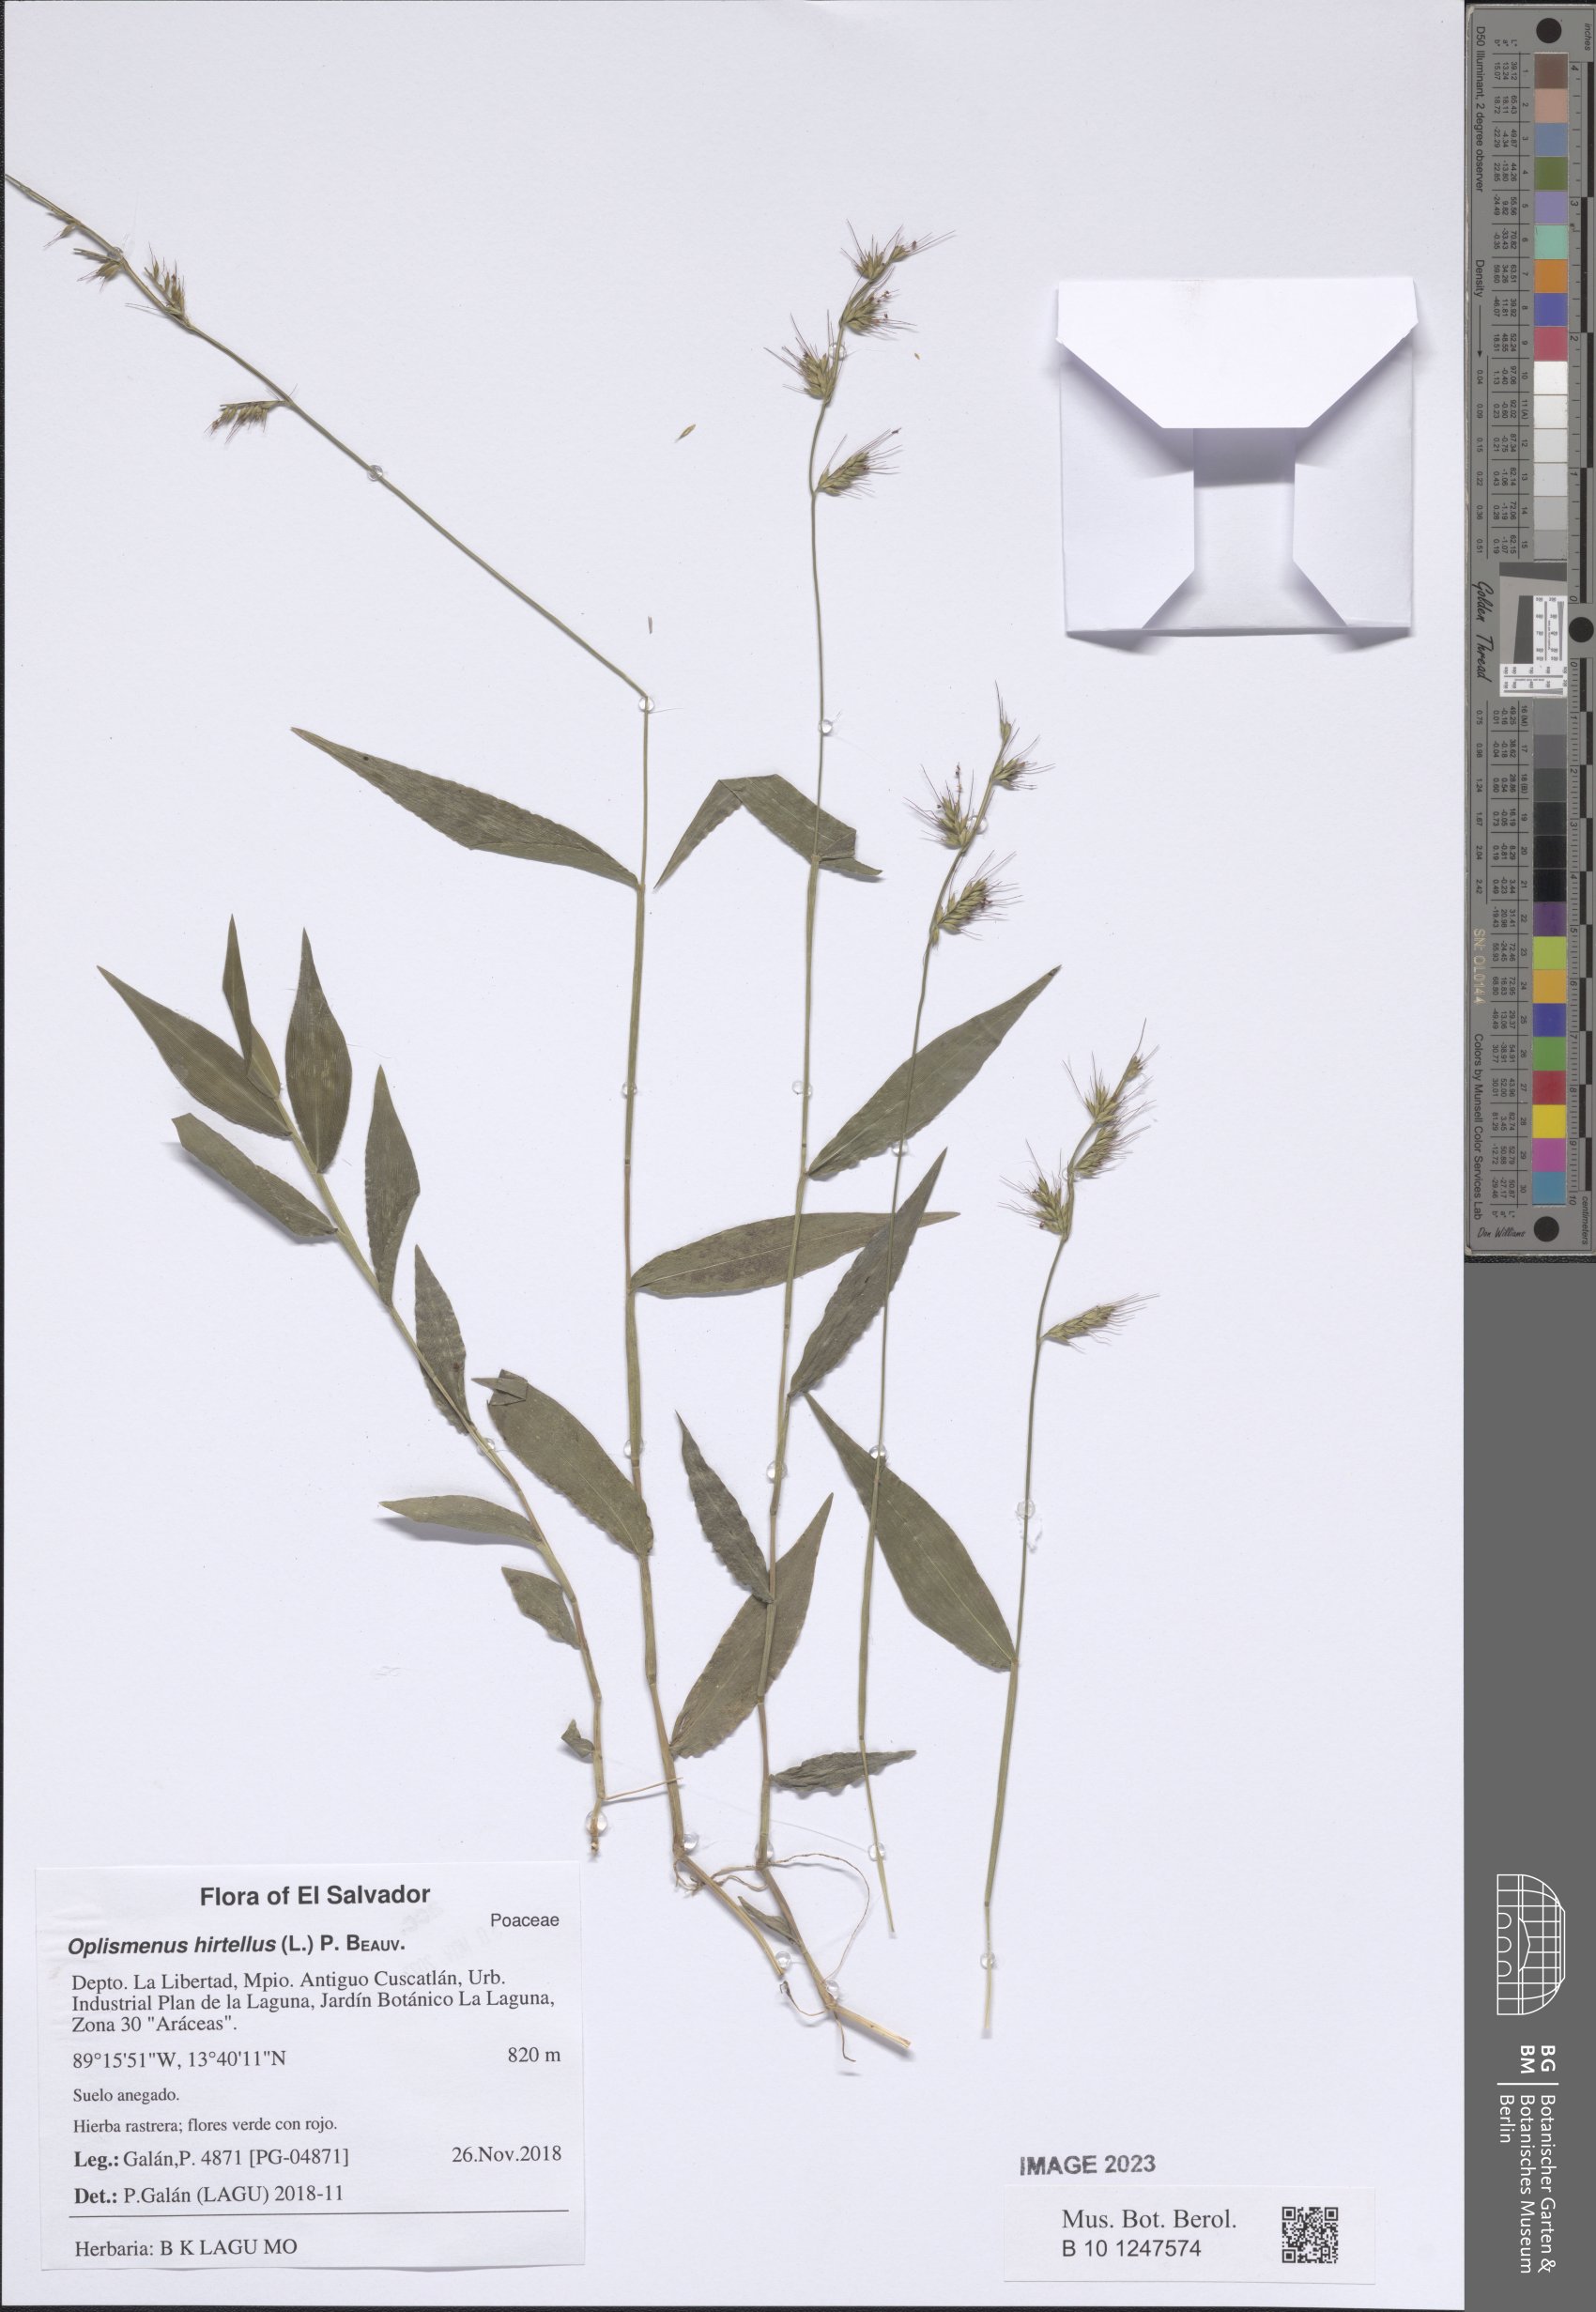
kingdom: Plantae
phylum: Tracheophyta
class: Liliopsida
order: Poales
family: Poaceae
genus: Oplismenus
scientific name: Oplismenus hirtellus
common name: Basketgrass
